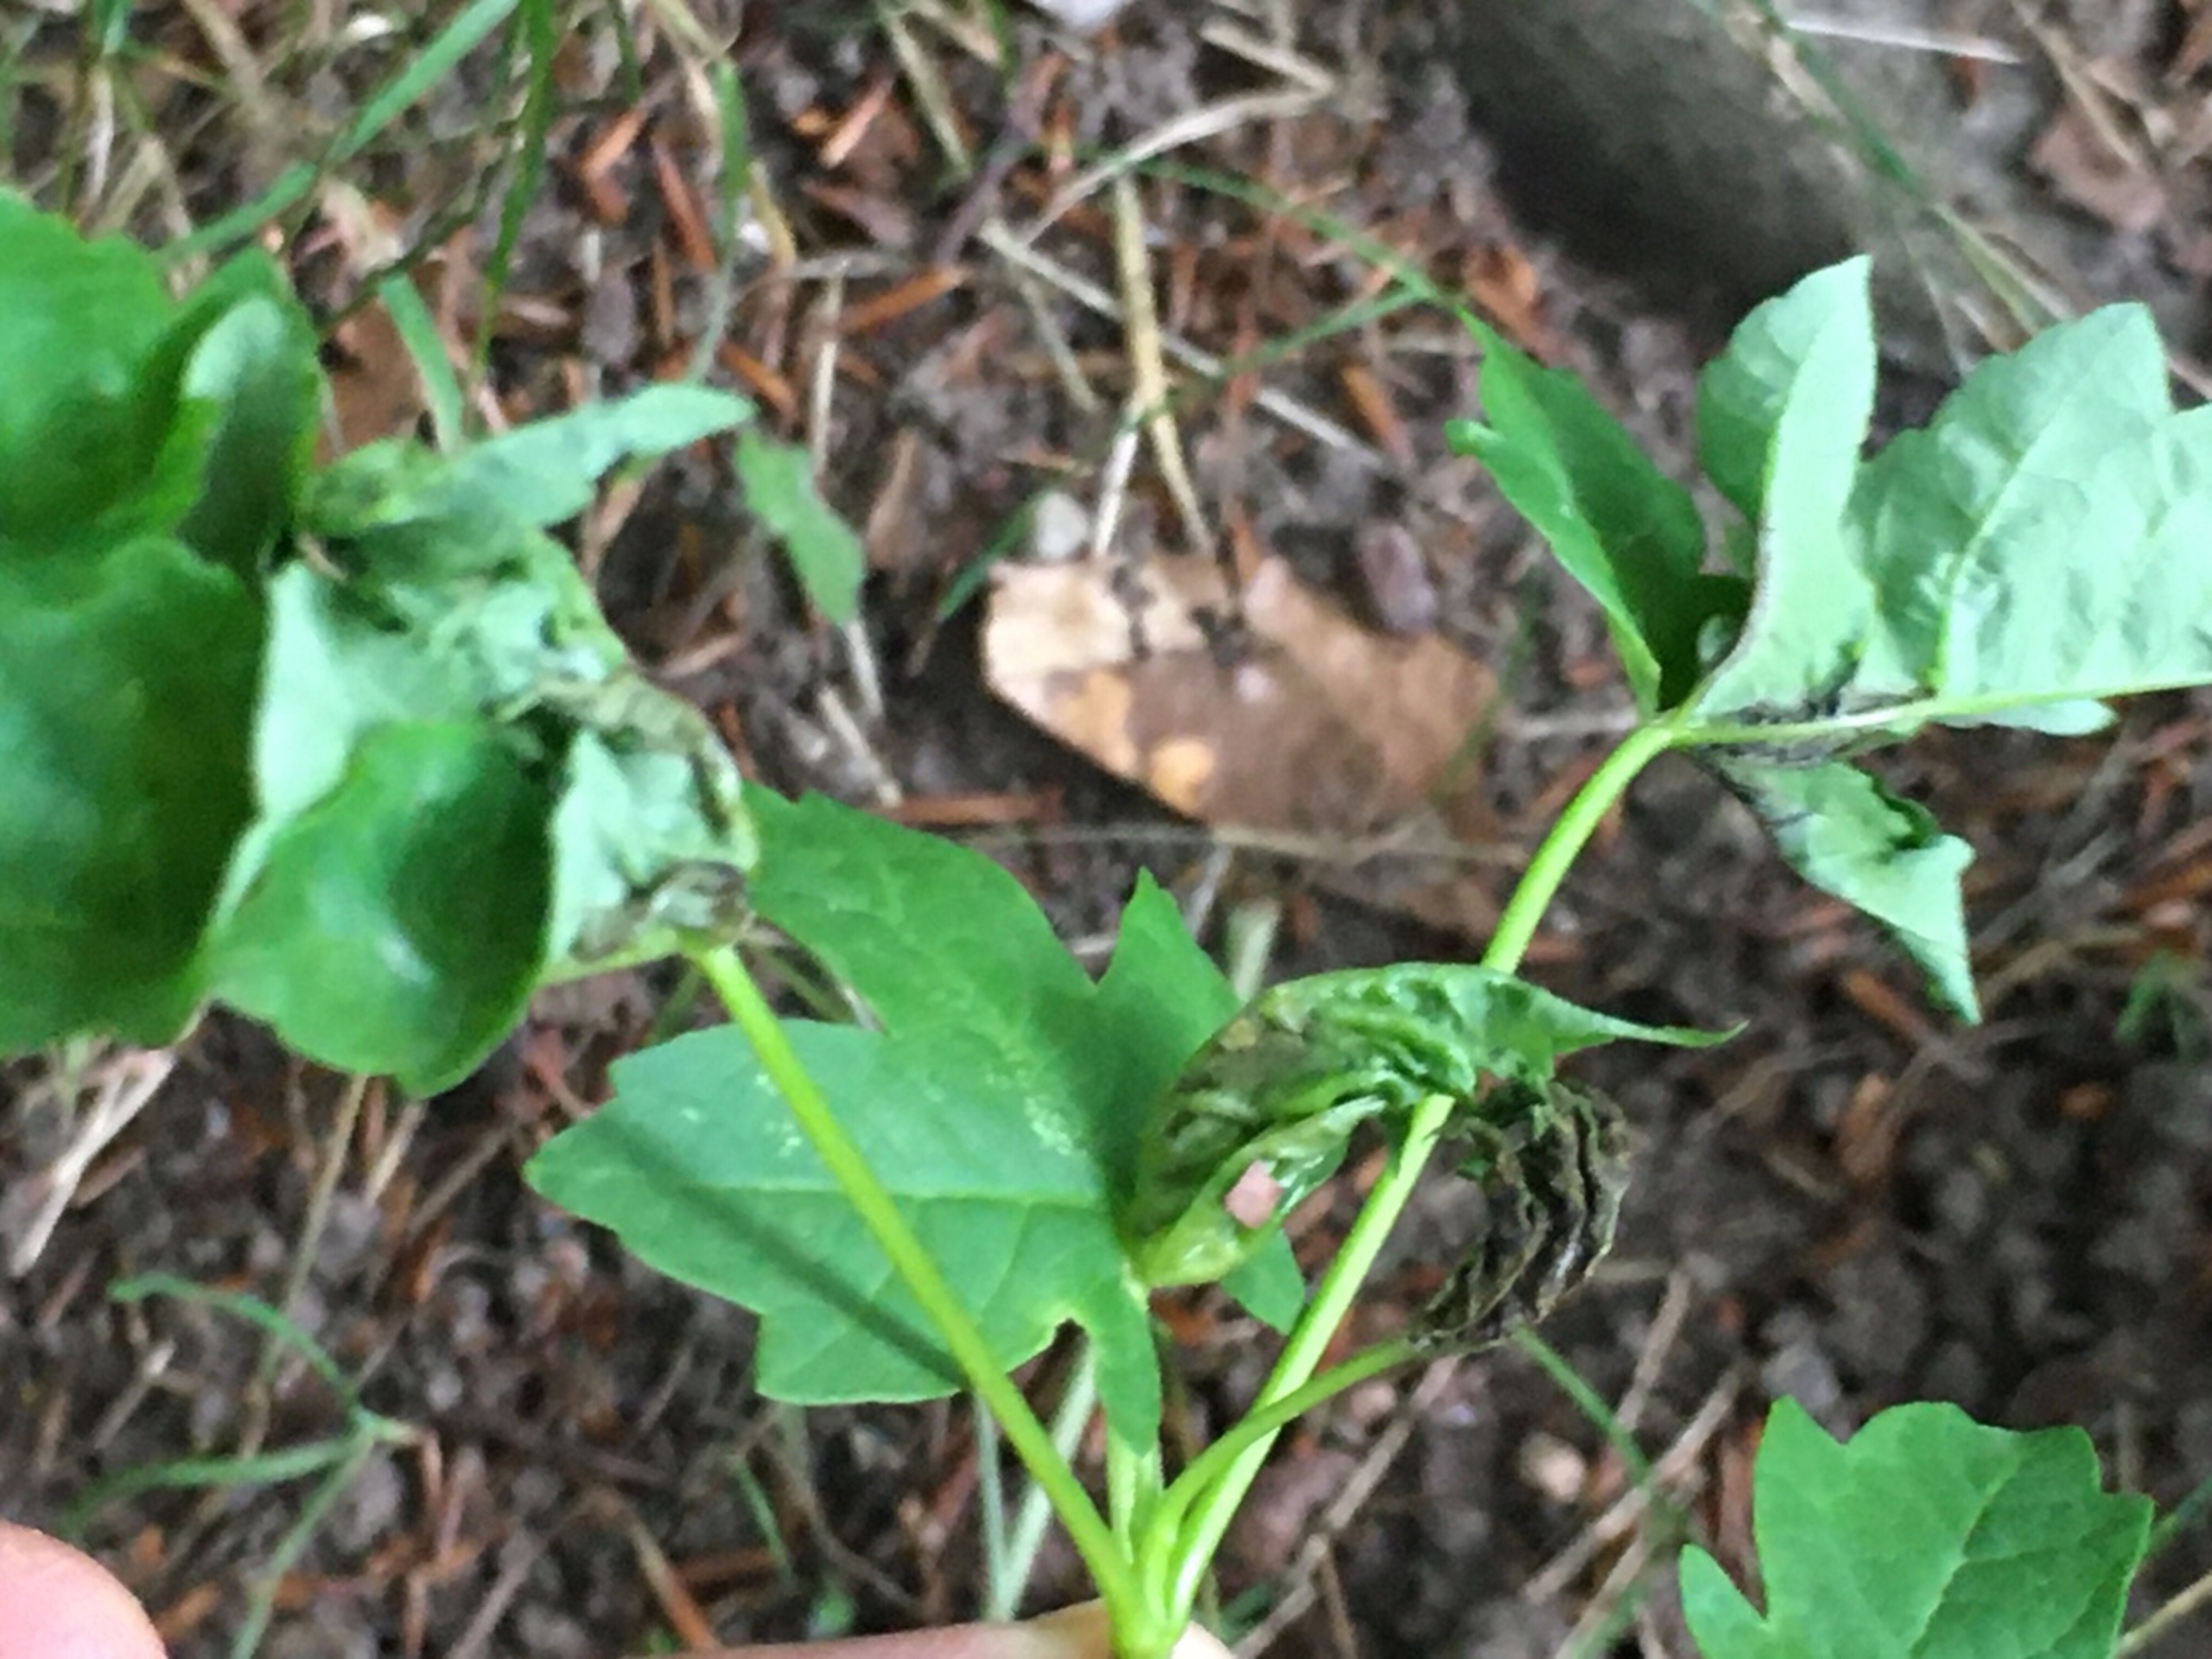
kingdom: Animalia
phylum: Arthropoda
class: Insecta
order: Diptera
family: Cecidomyiidae
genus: Dasineura
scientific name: Dasineura irregularis
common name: Ahornkrusegalmyg
